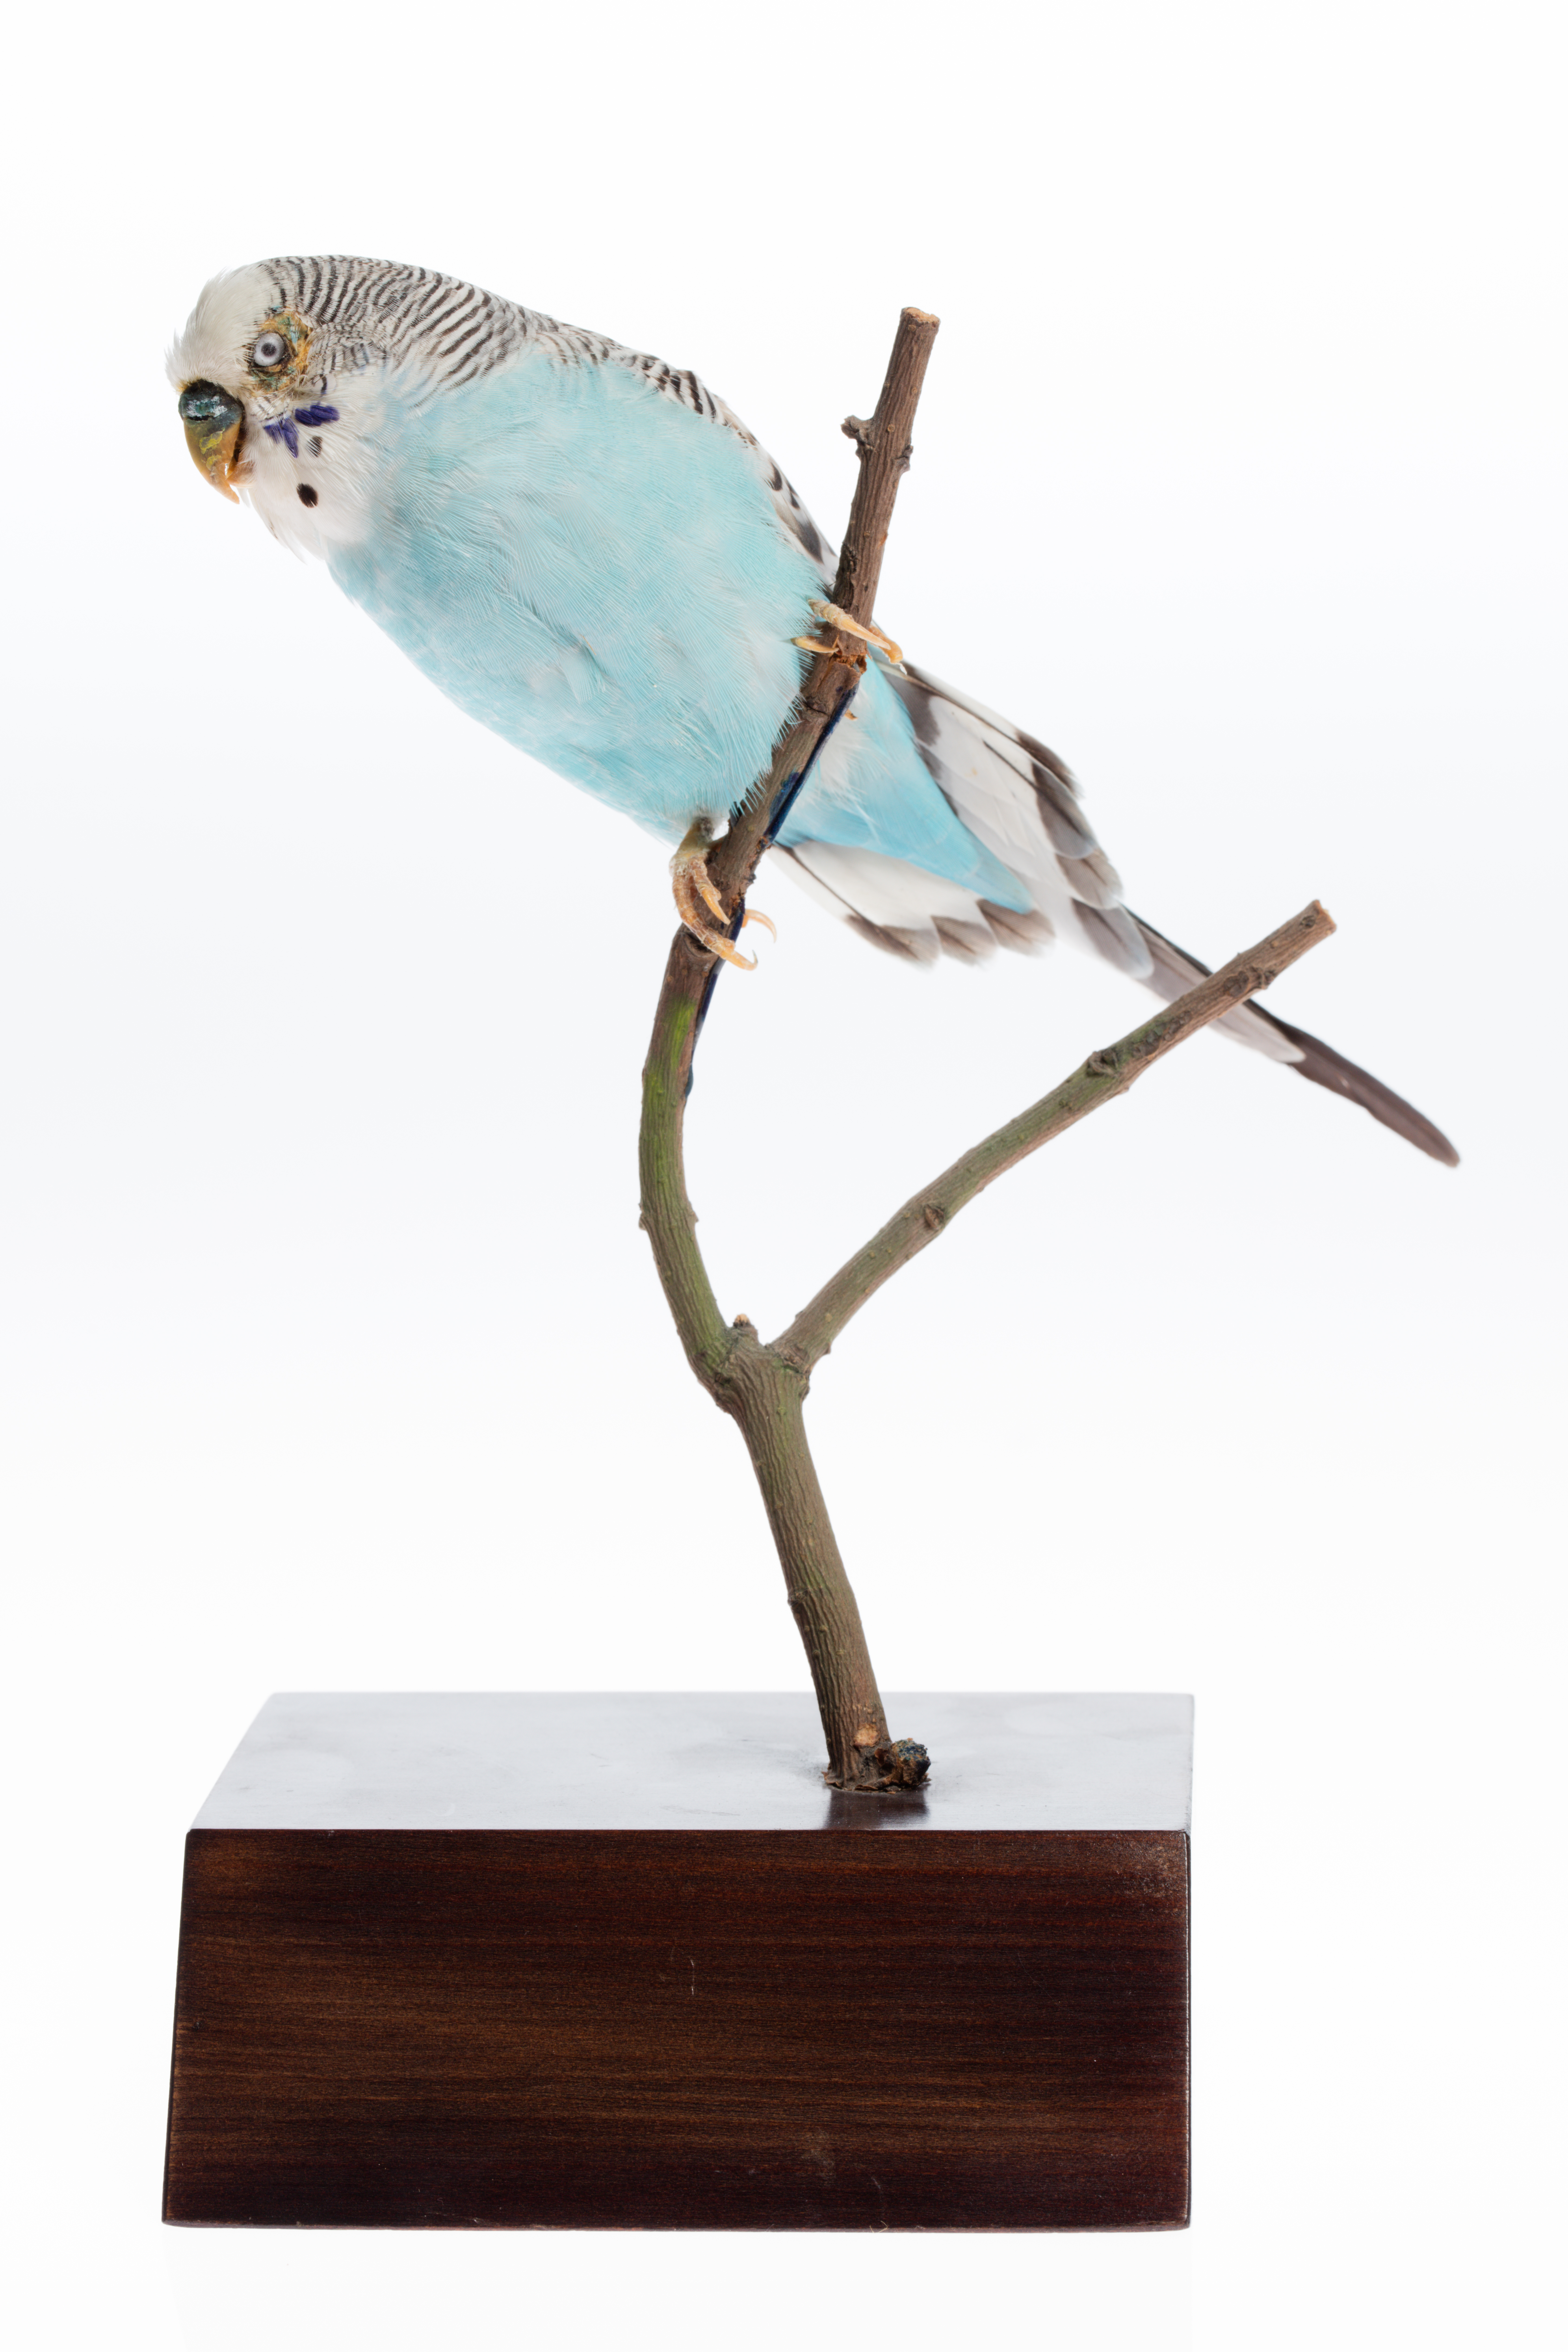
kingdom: Animalia
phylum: Chordata
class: Aves
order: Psittaciformes
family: Psittacidae
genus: Melopsittacus
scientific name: Melopsittacus undulatus
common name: Budgerigar
